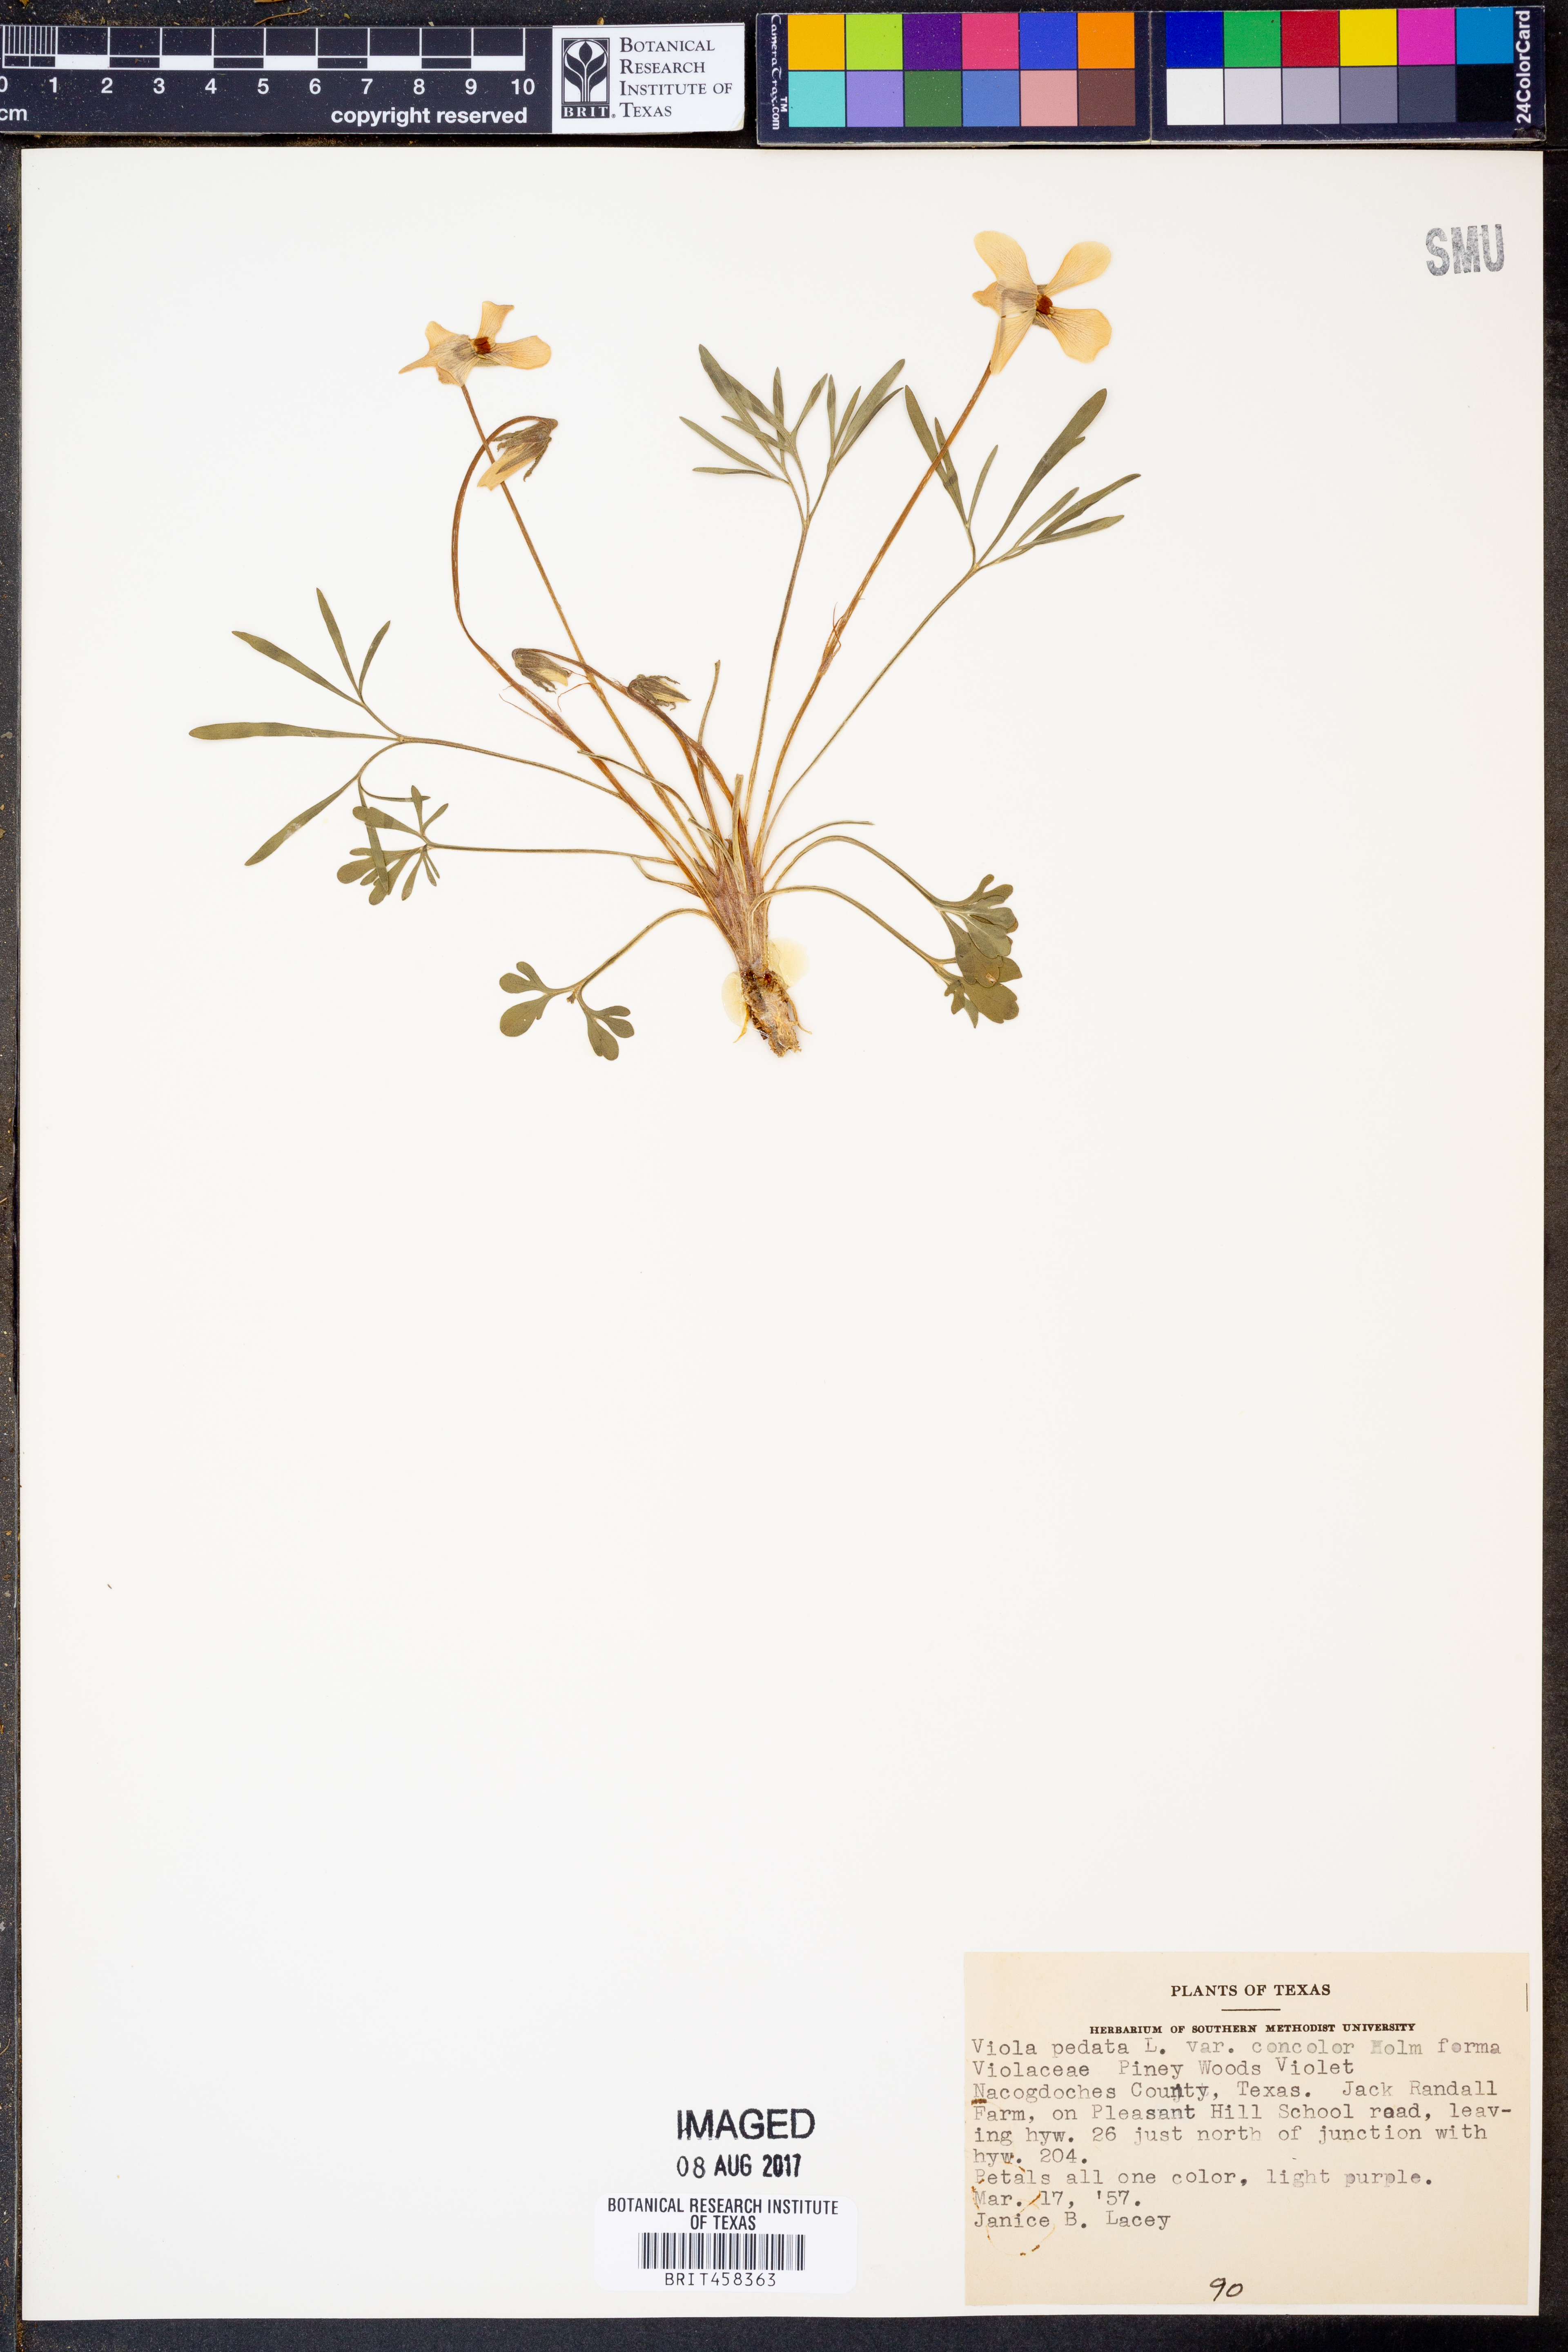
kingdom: Plantae
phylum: Tracheophyta
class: Magnoliopsida
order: Malpighiales
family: Violaceae
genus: Viola
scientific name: Viola pedata
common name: Pansy violet
